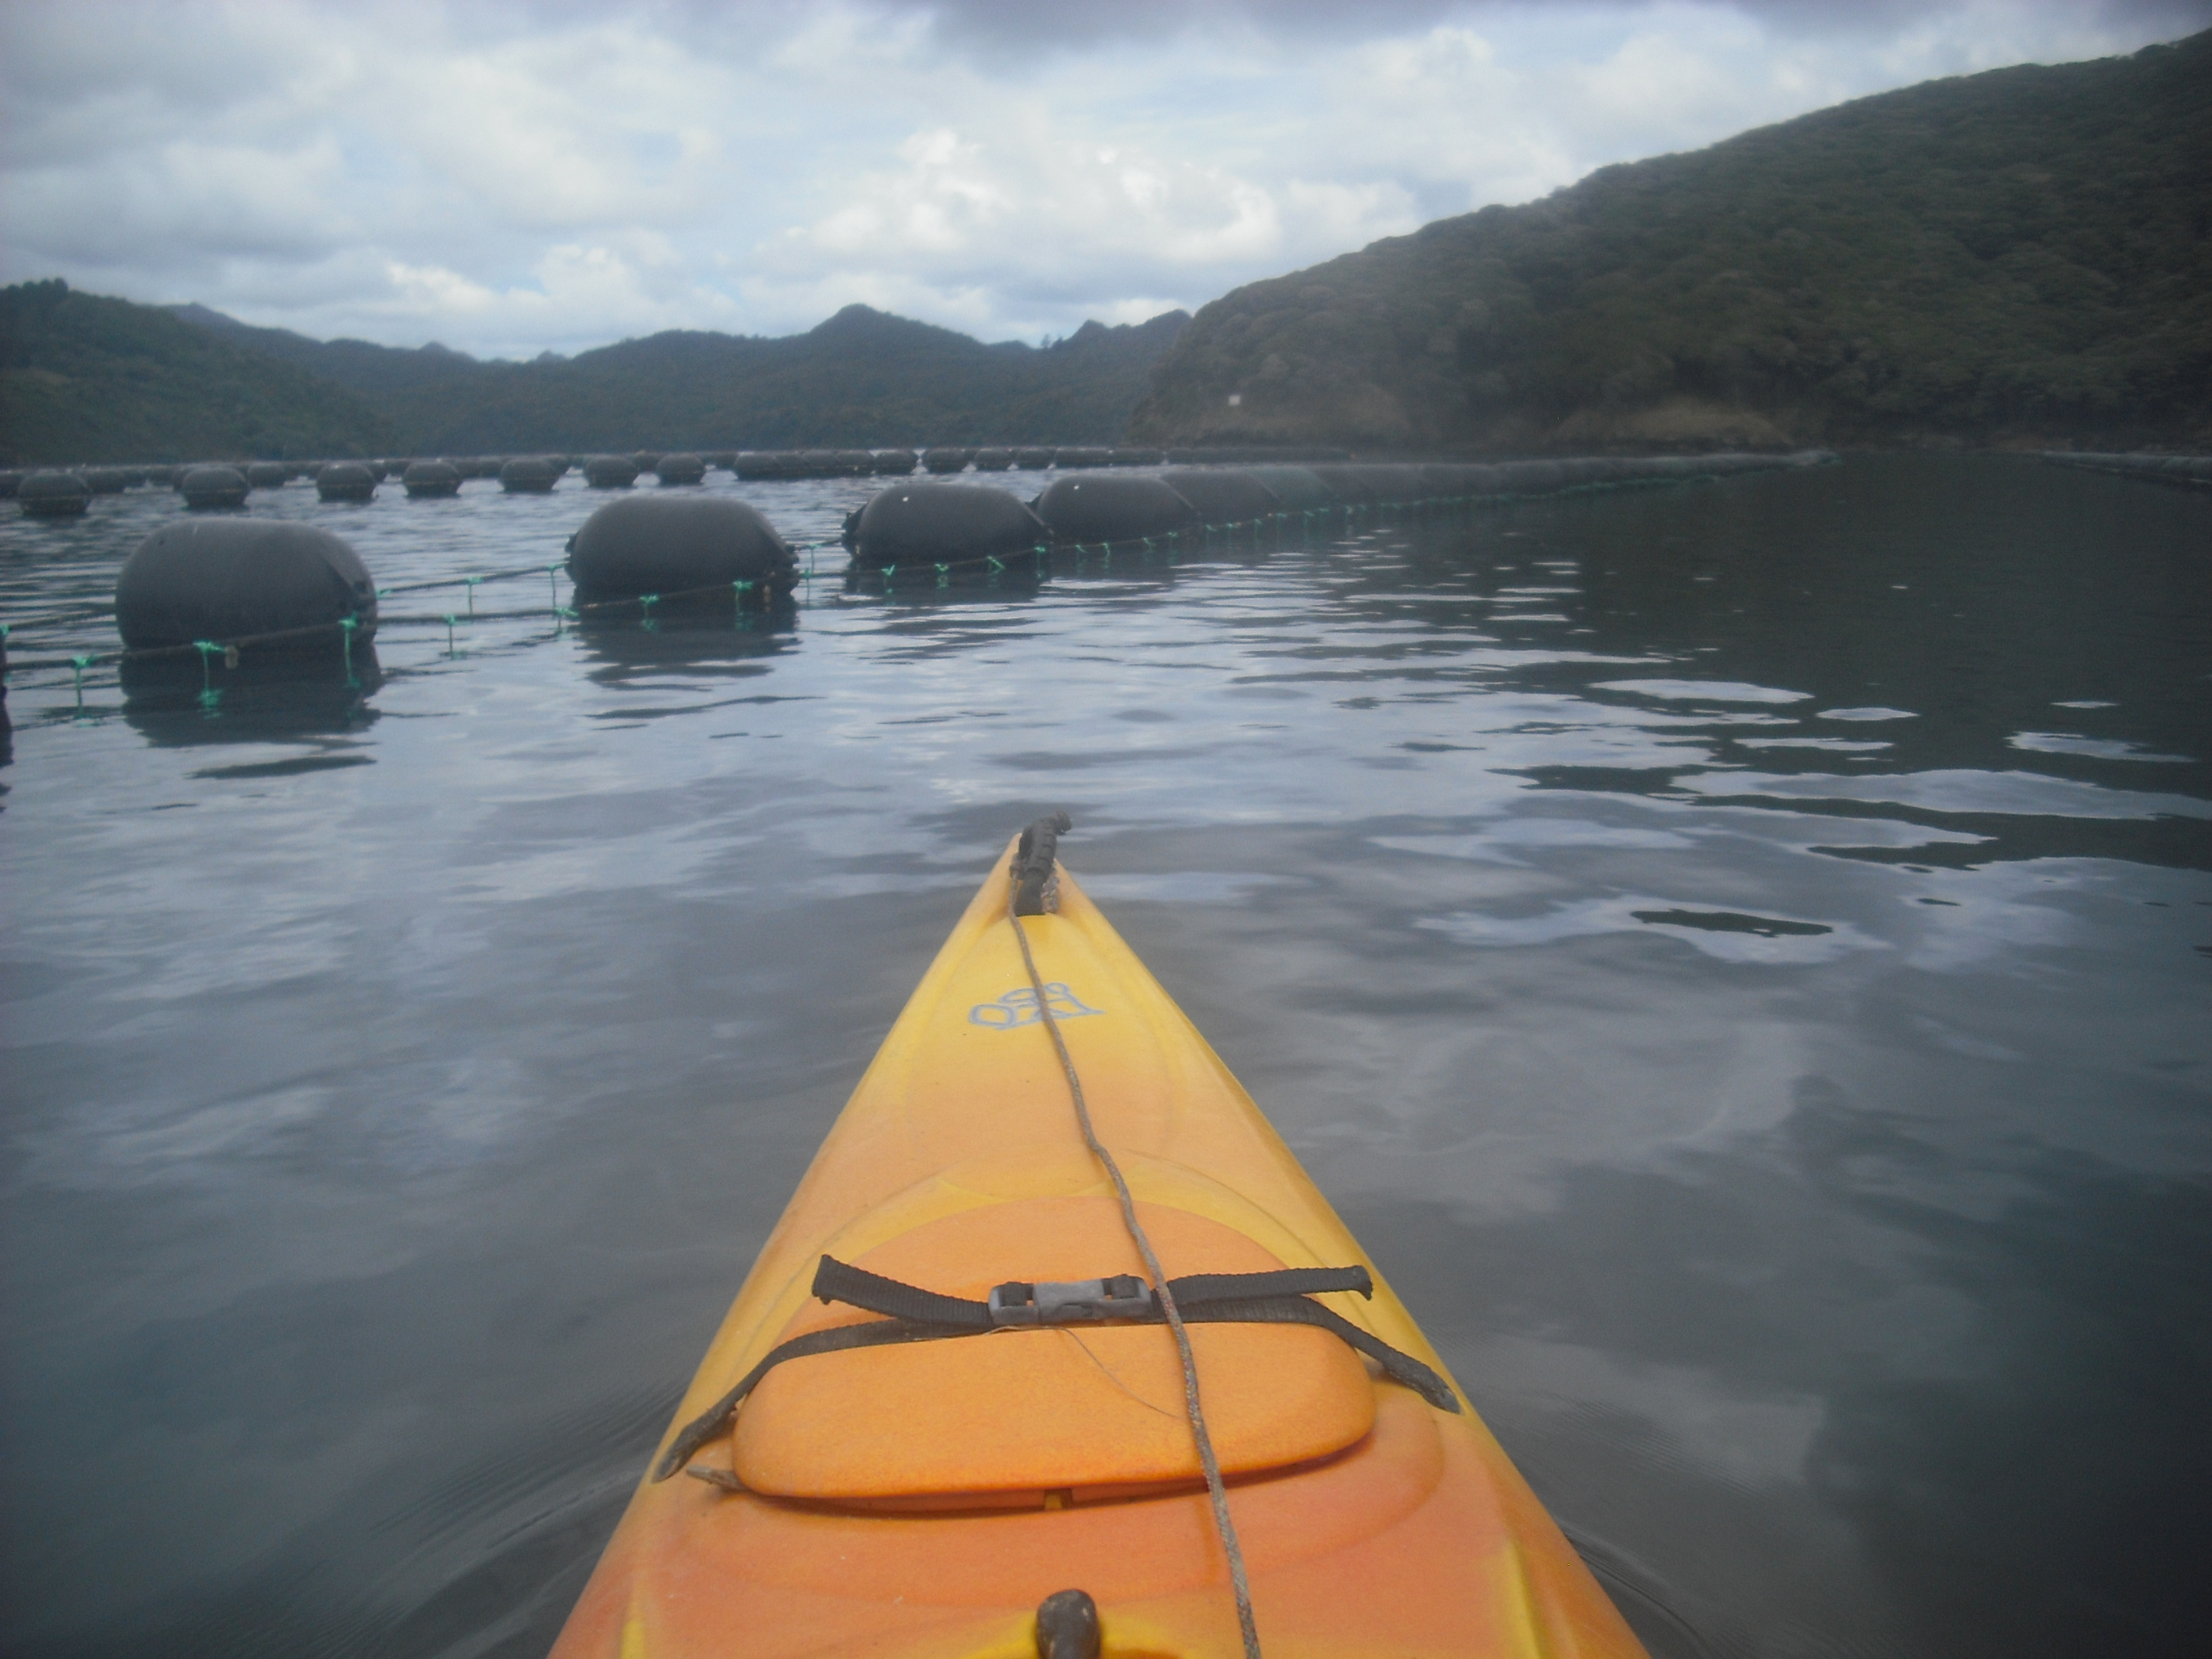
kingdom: Chromista
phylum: Ochrophyta
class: Phaeophyceae
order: Laminariales
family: Alariaceae
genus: Undaria
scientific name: Undaria pinnatifida
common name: Asian kelp
